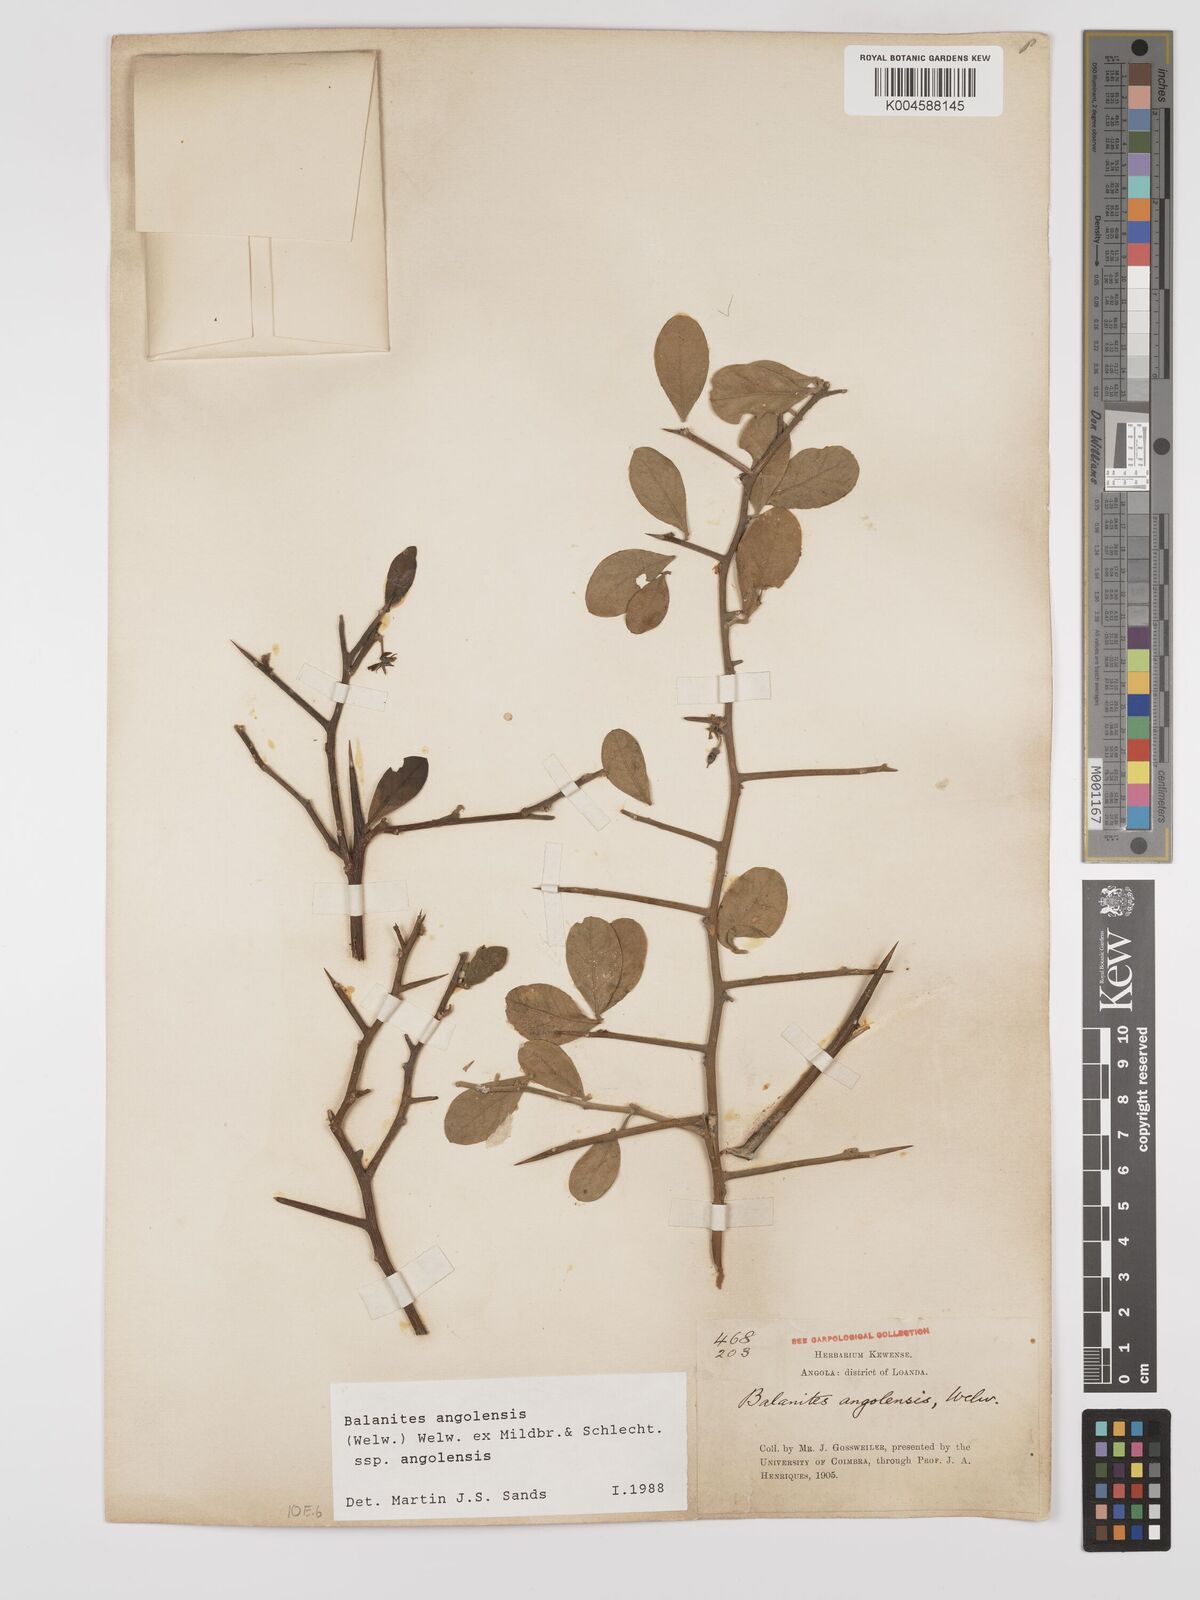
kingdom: Plantae
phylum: Tracheophyta
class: Magnoliopsida
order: Zygophyllales
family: Zygophyllaceae
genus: Balanites
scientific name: Balanites angolensis
